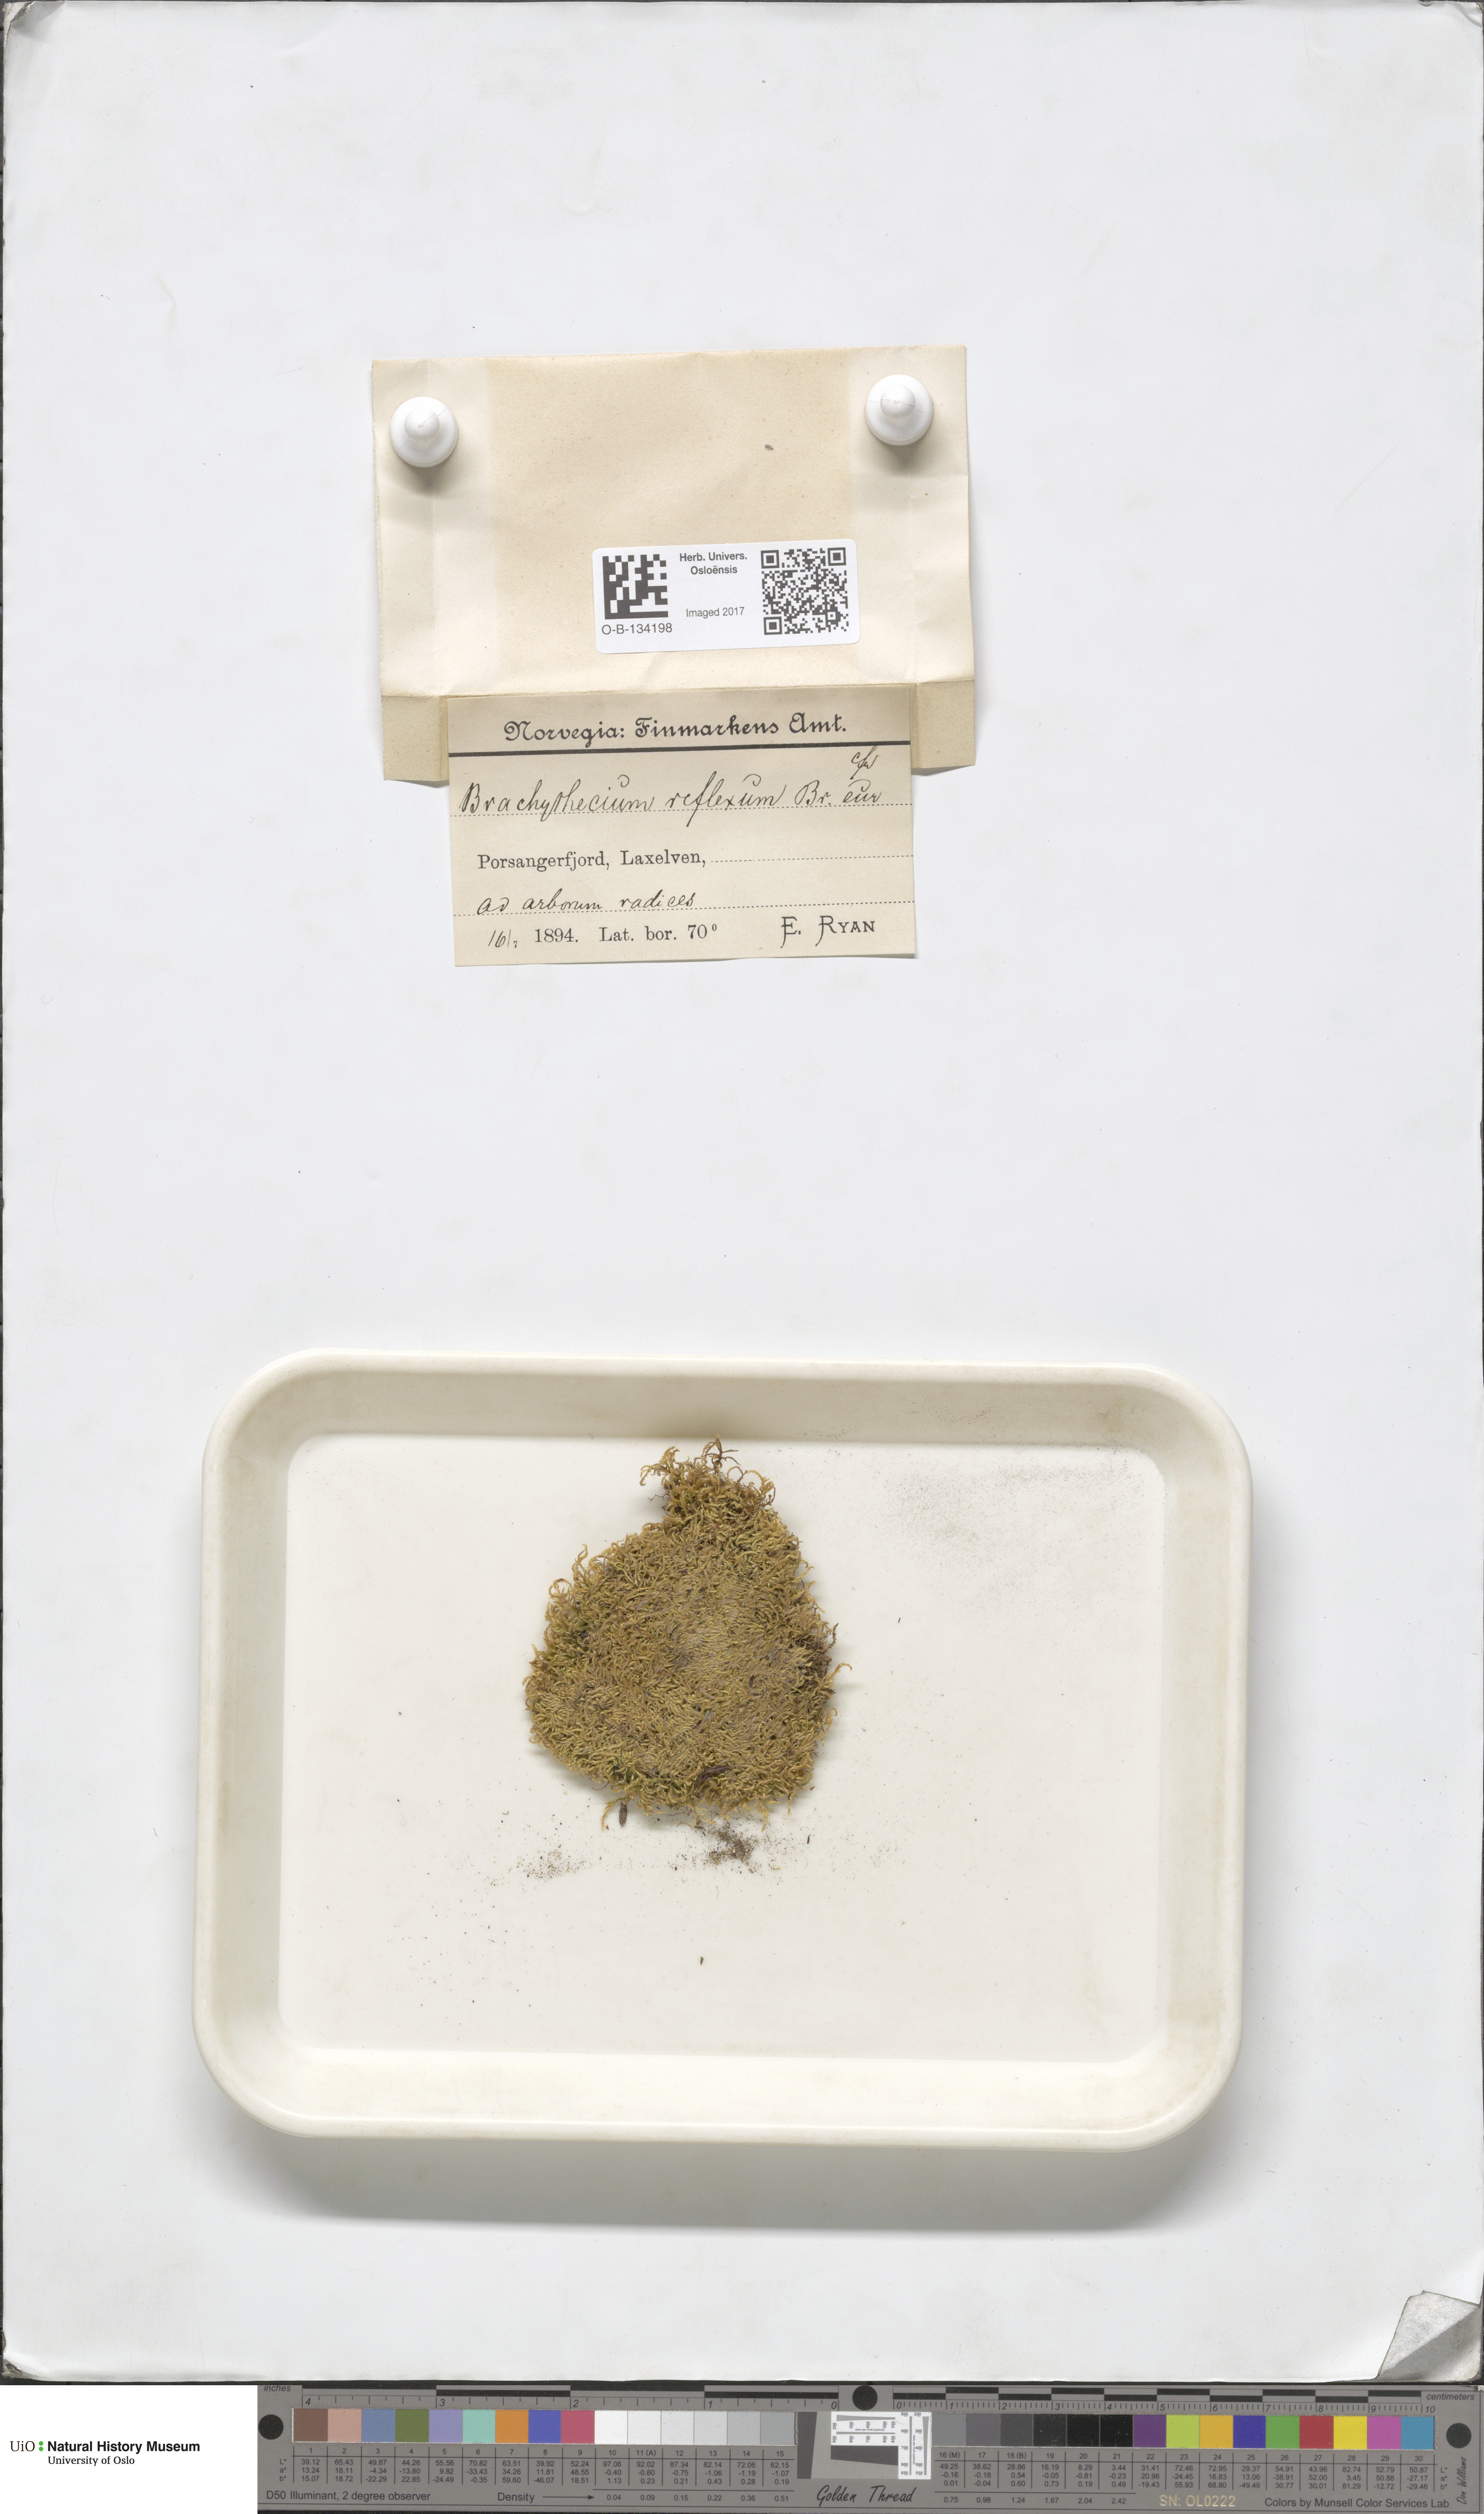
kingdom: Plantae
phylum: Bryophyta
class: Bryopsida
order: Hypnales
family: Brachytheciaceae
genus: Sciuro-hypnum
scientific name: Sciuro-hypnum reflexum
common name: Reflexed feather-moss
